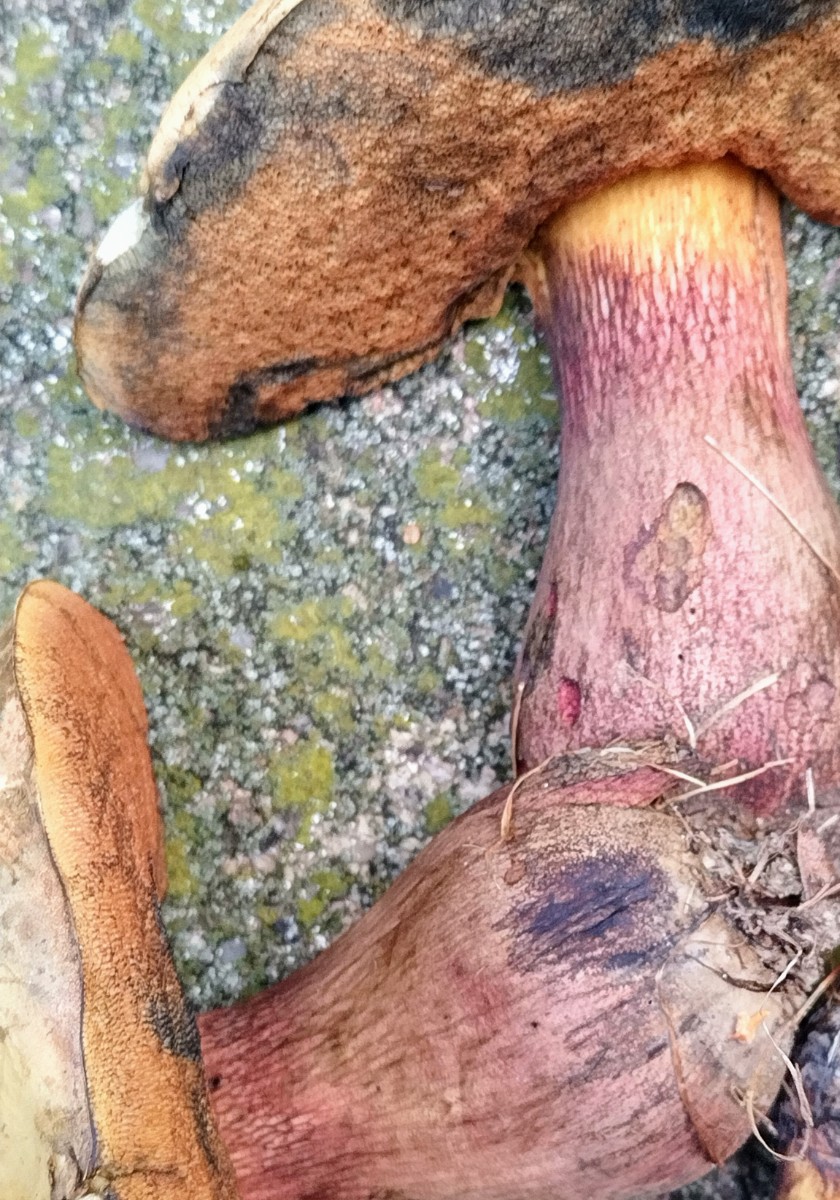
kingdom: Fungi
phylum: Basidiomycota
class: Agaricomycetes
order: Boletales
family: Boletaceae
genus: Suillellus
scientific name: Suillellus luridus
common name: netstokket indigorørhat
